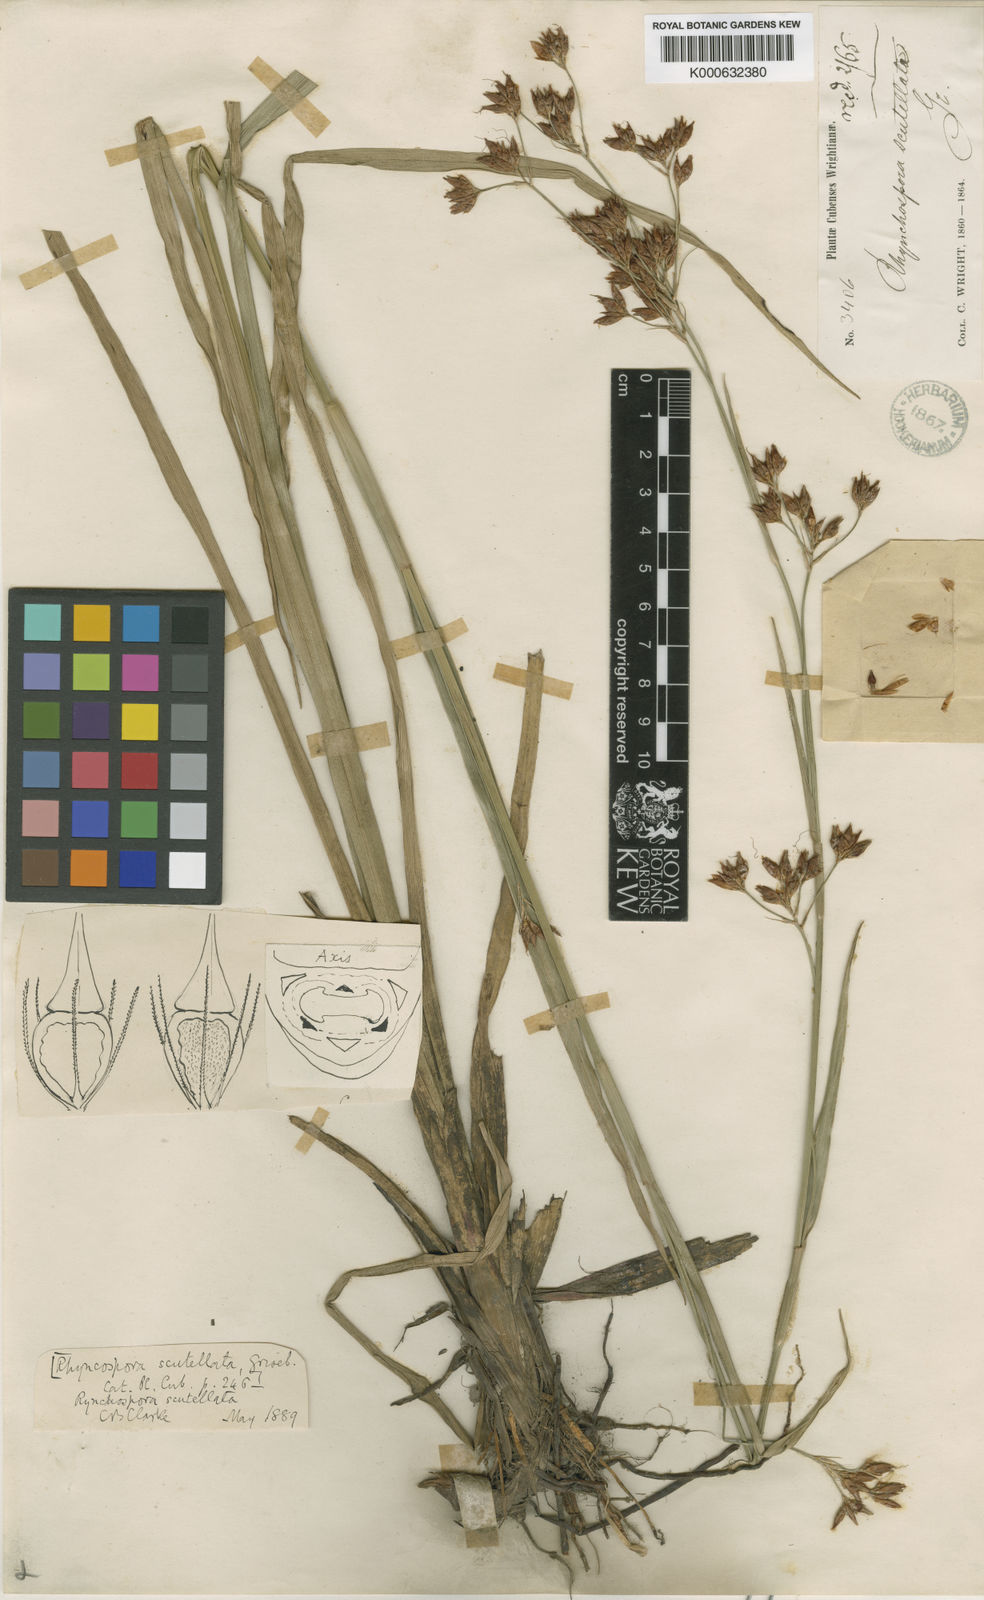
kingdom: Plantae
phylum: Tracheophyta
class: Liliopsida
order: Poales
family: Cyperaceae
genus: Rhynchospora
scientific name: Rhynchospora scutellata
